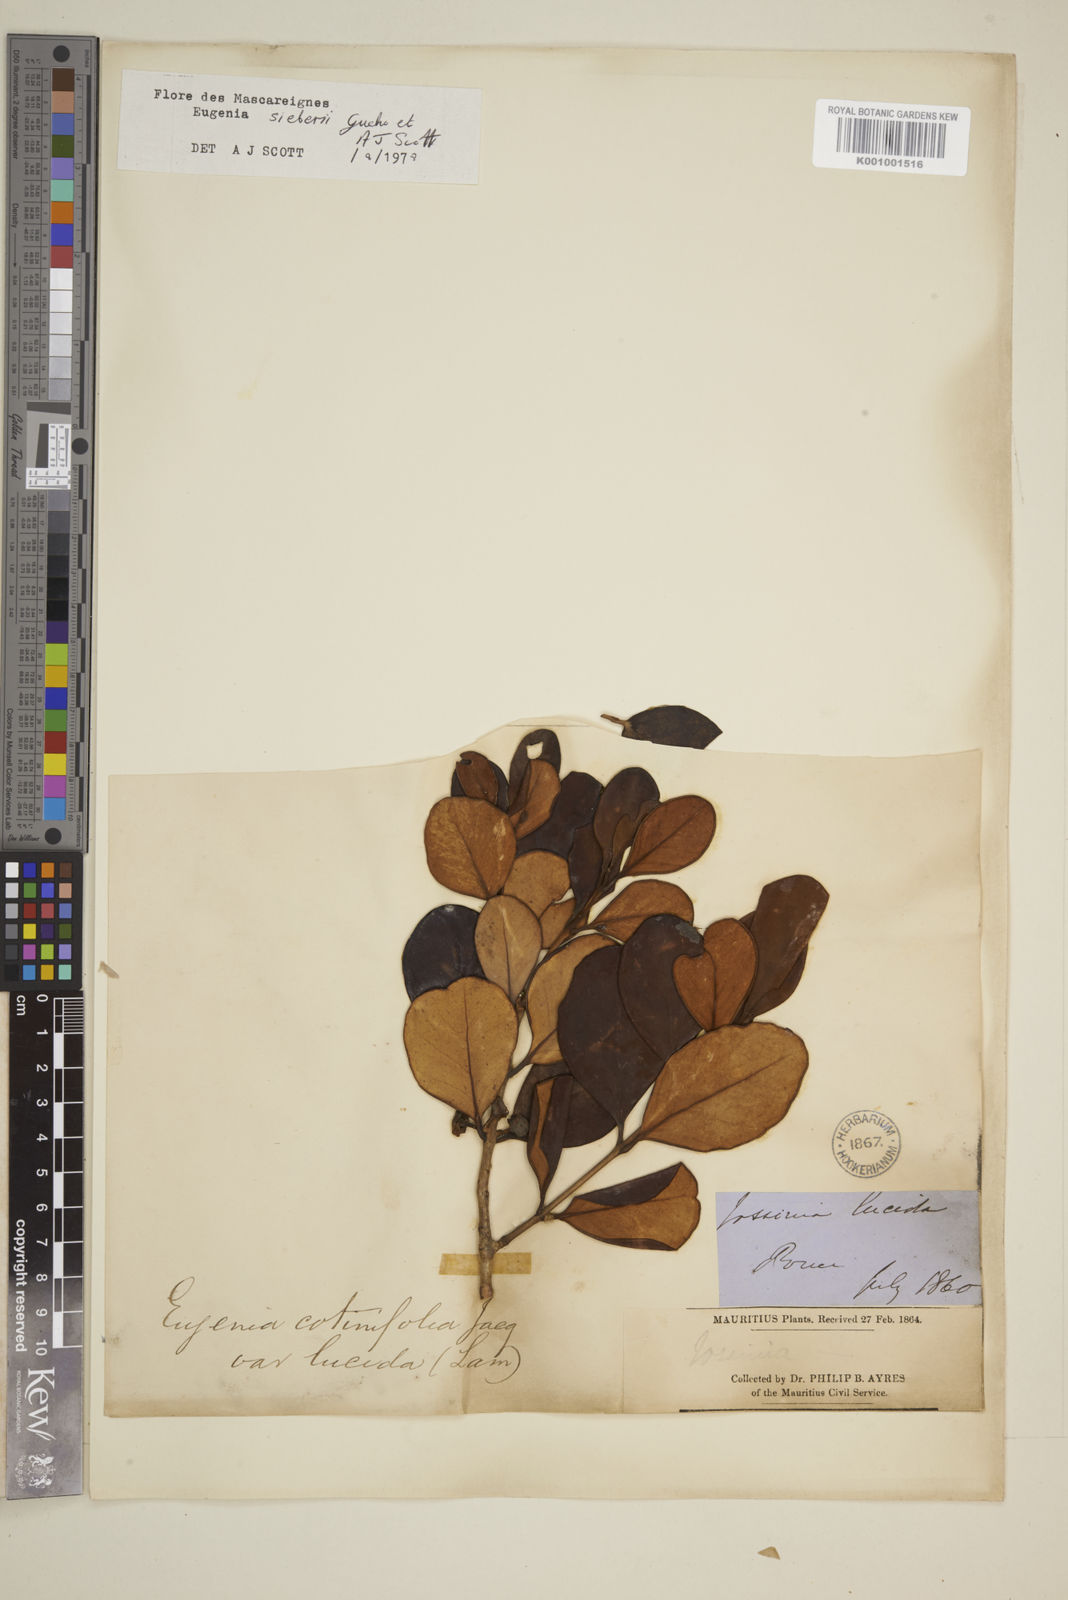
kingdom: Plantae
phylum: Tracheophyta
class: Magnoliopsida
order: Myrtales
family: Myrtaceae
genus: Eugenia
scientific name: Eugenia
